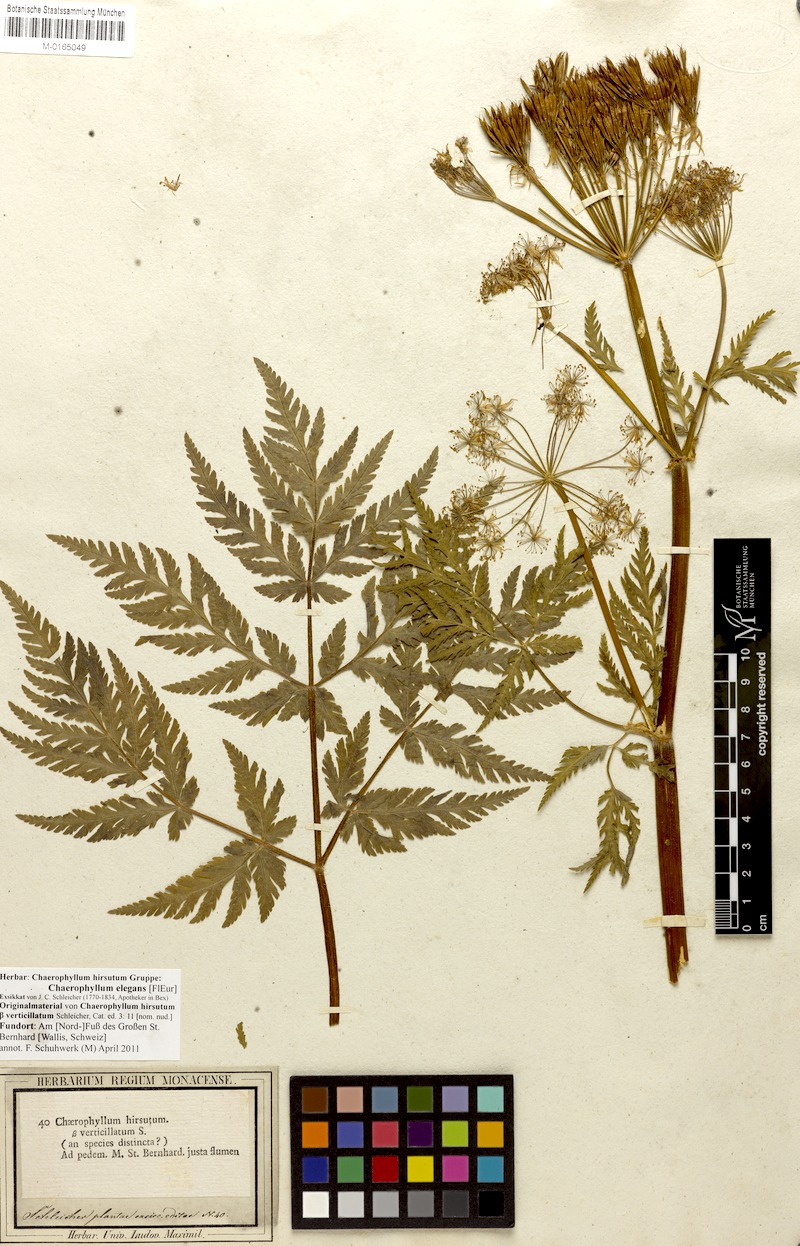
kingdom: Plantae
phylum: Tracheophyta
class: Magnoliopsida
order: Apiales
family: Apiaceae
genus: Chaerophyllum
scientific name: Chaerophyllum elegans
